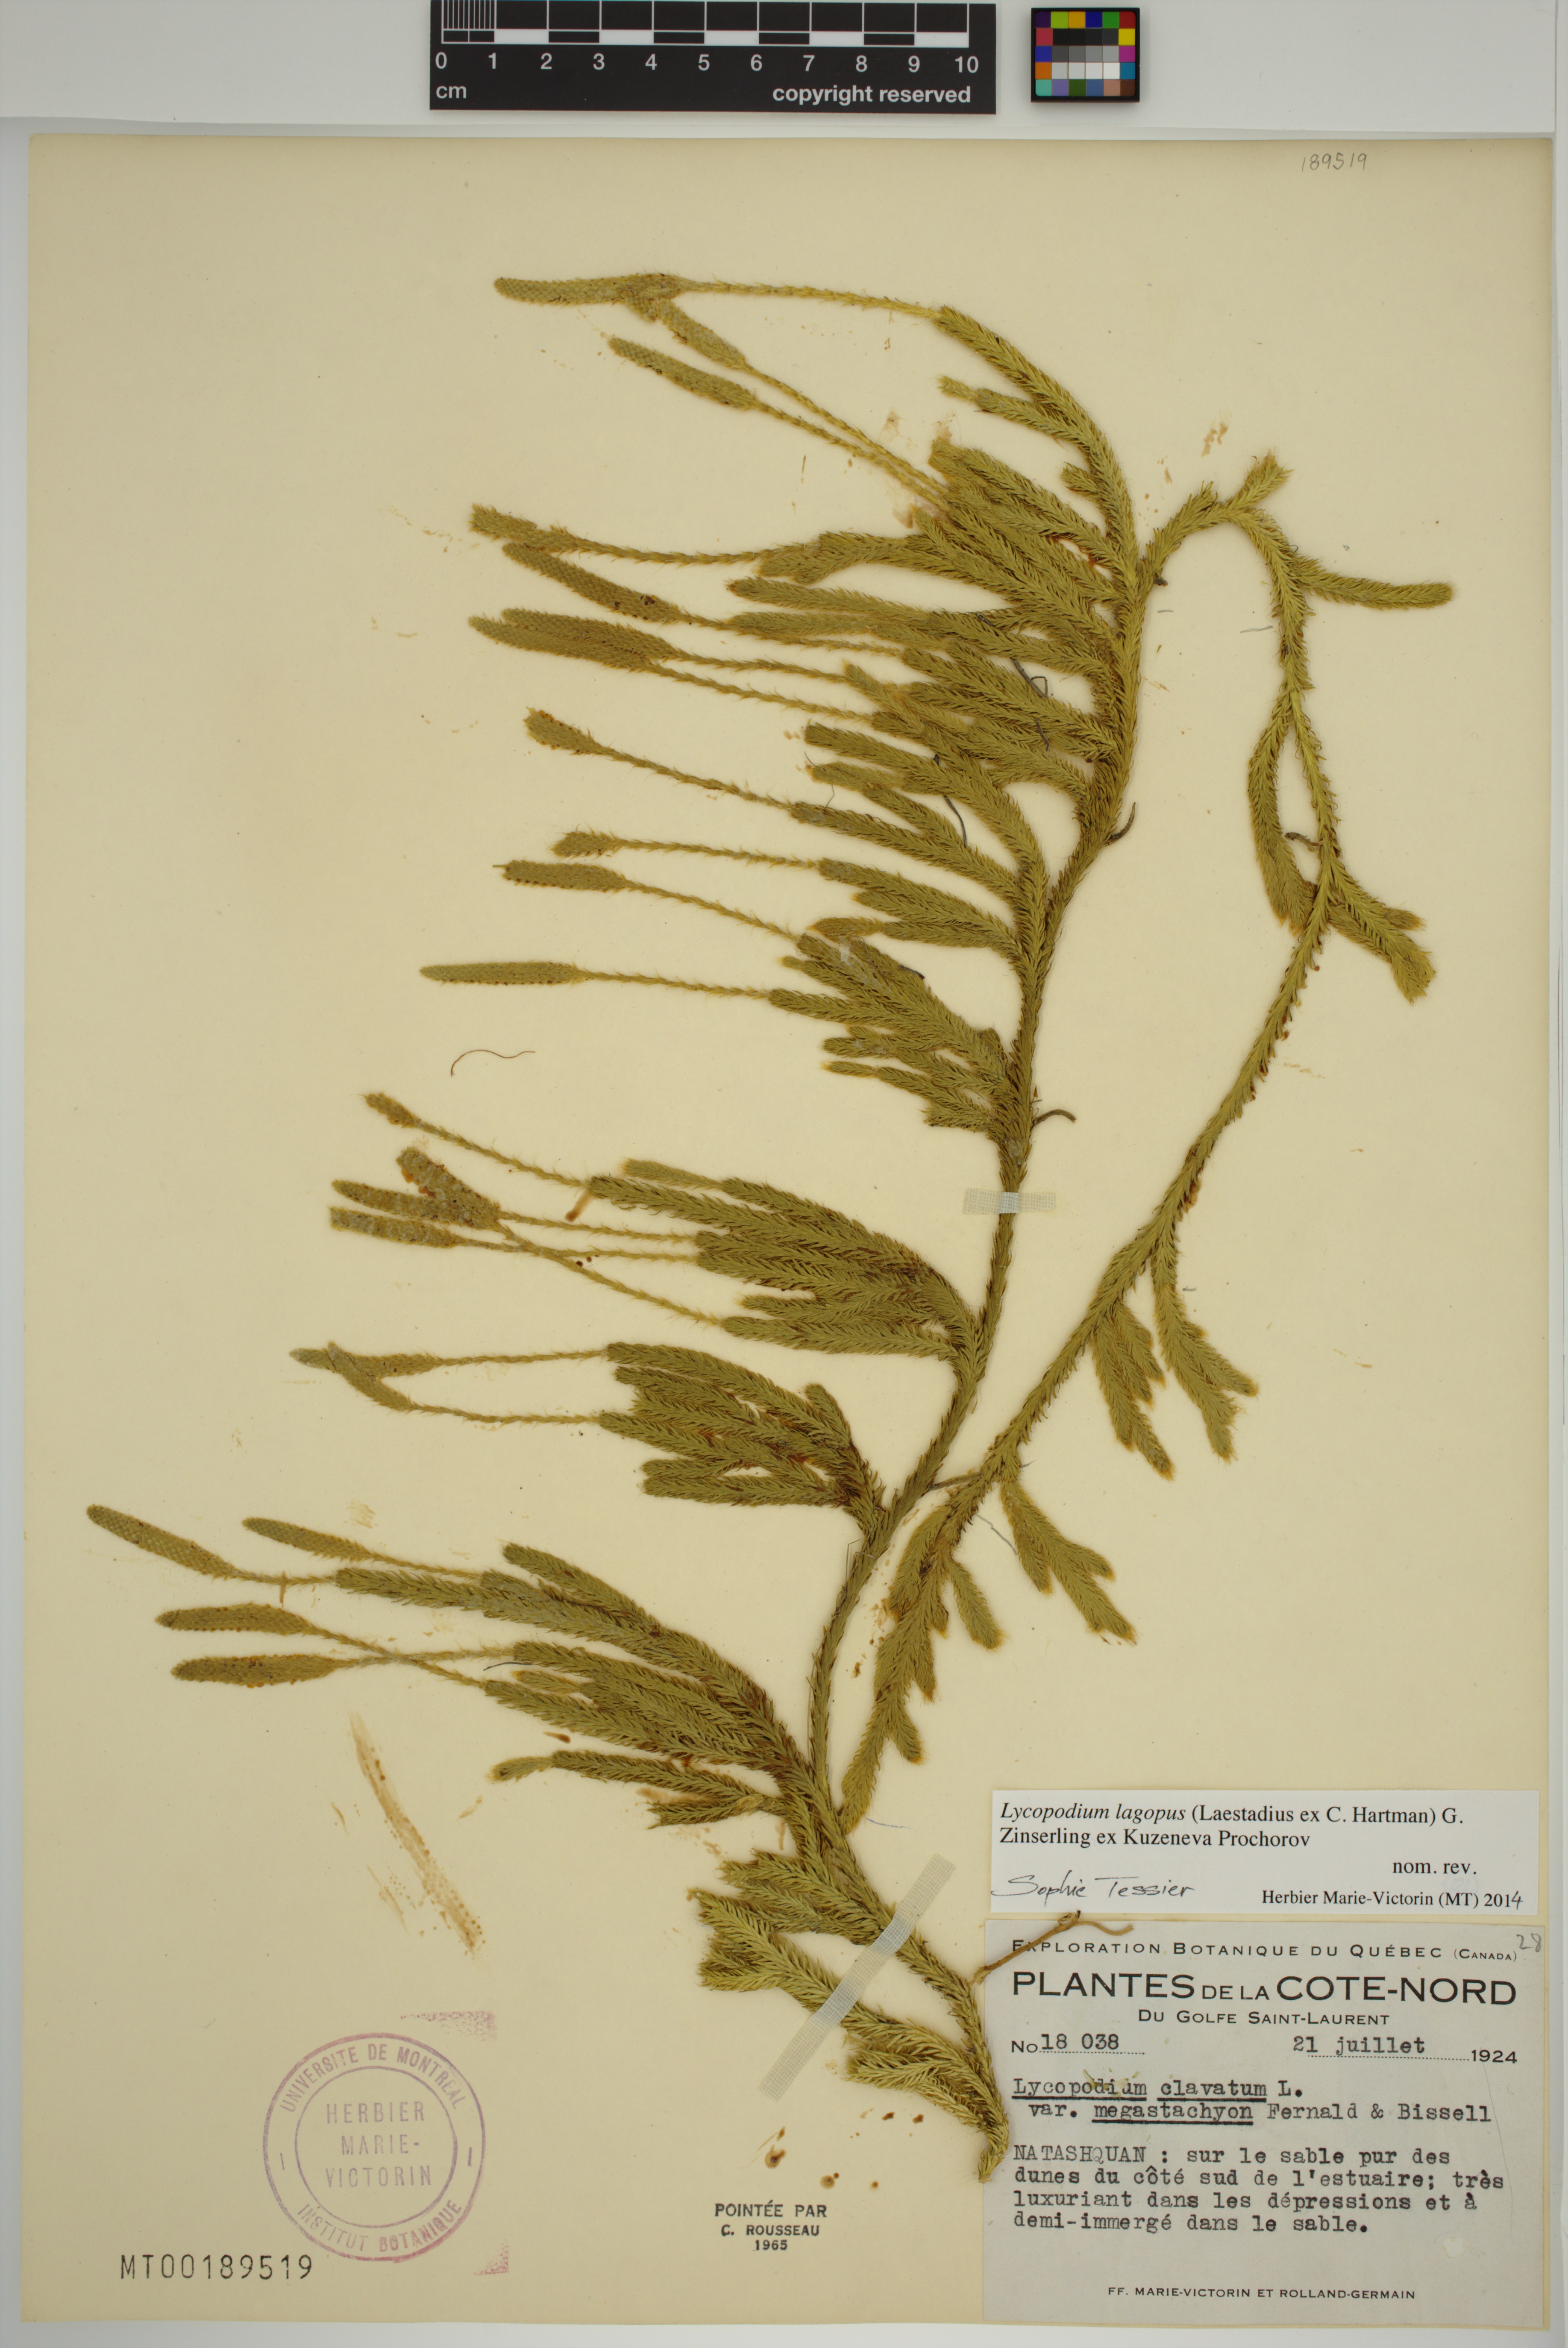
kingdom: Plantae
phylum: Tracheophyta
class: Lycopodiopsida
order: Lycopodiales
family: Lycopodiaceae
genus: Lycopodium
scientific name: Lycopodium lagopus
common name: One-cone clubmoss
